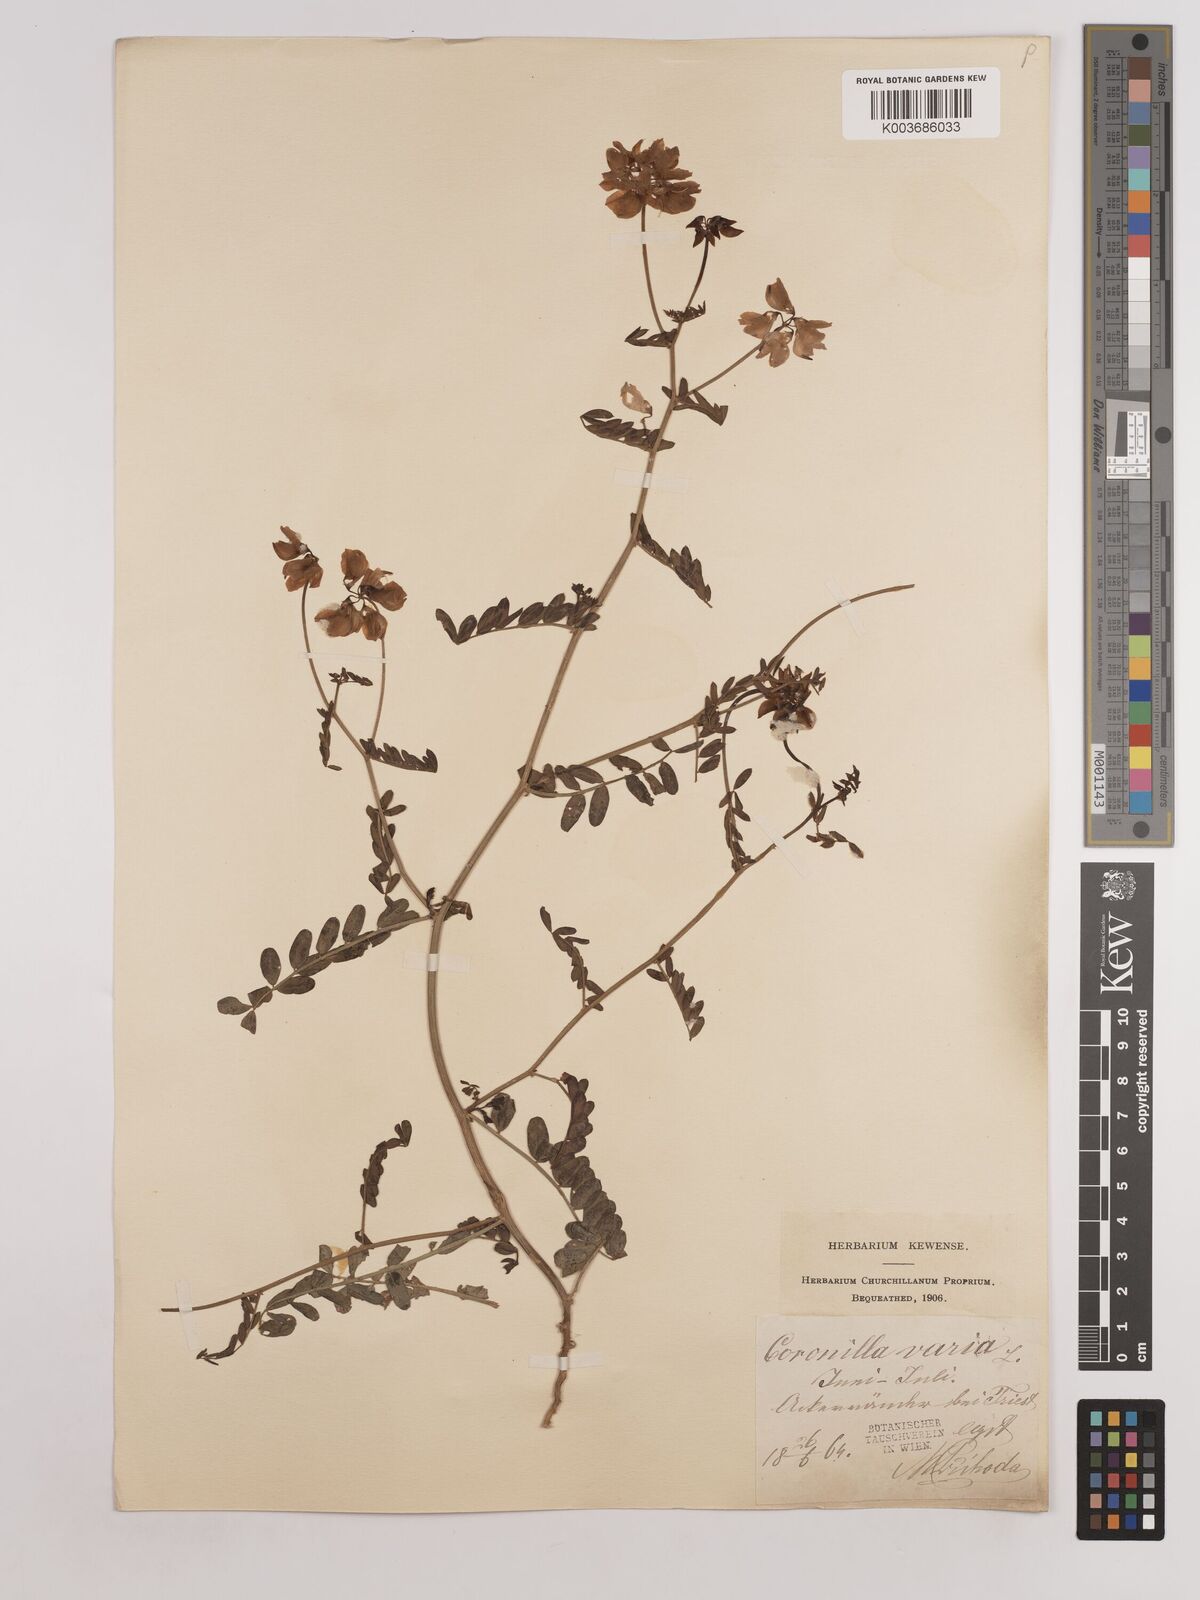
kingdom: Plantae
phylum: Tracheophyta
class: Magnoliopsida
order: Fabales
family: Fabaceae
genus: Coronilla
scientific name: Coronilla varia
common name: Crownvetch
